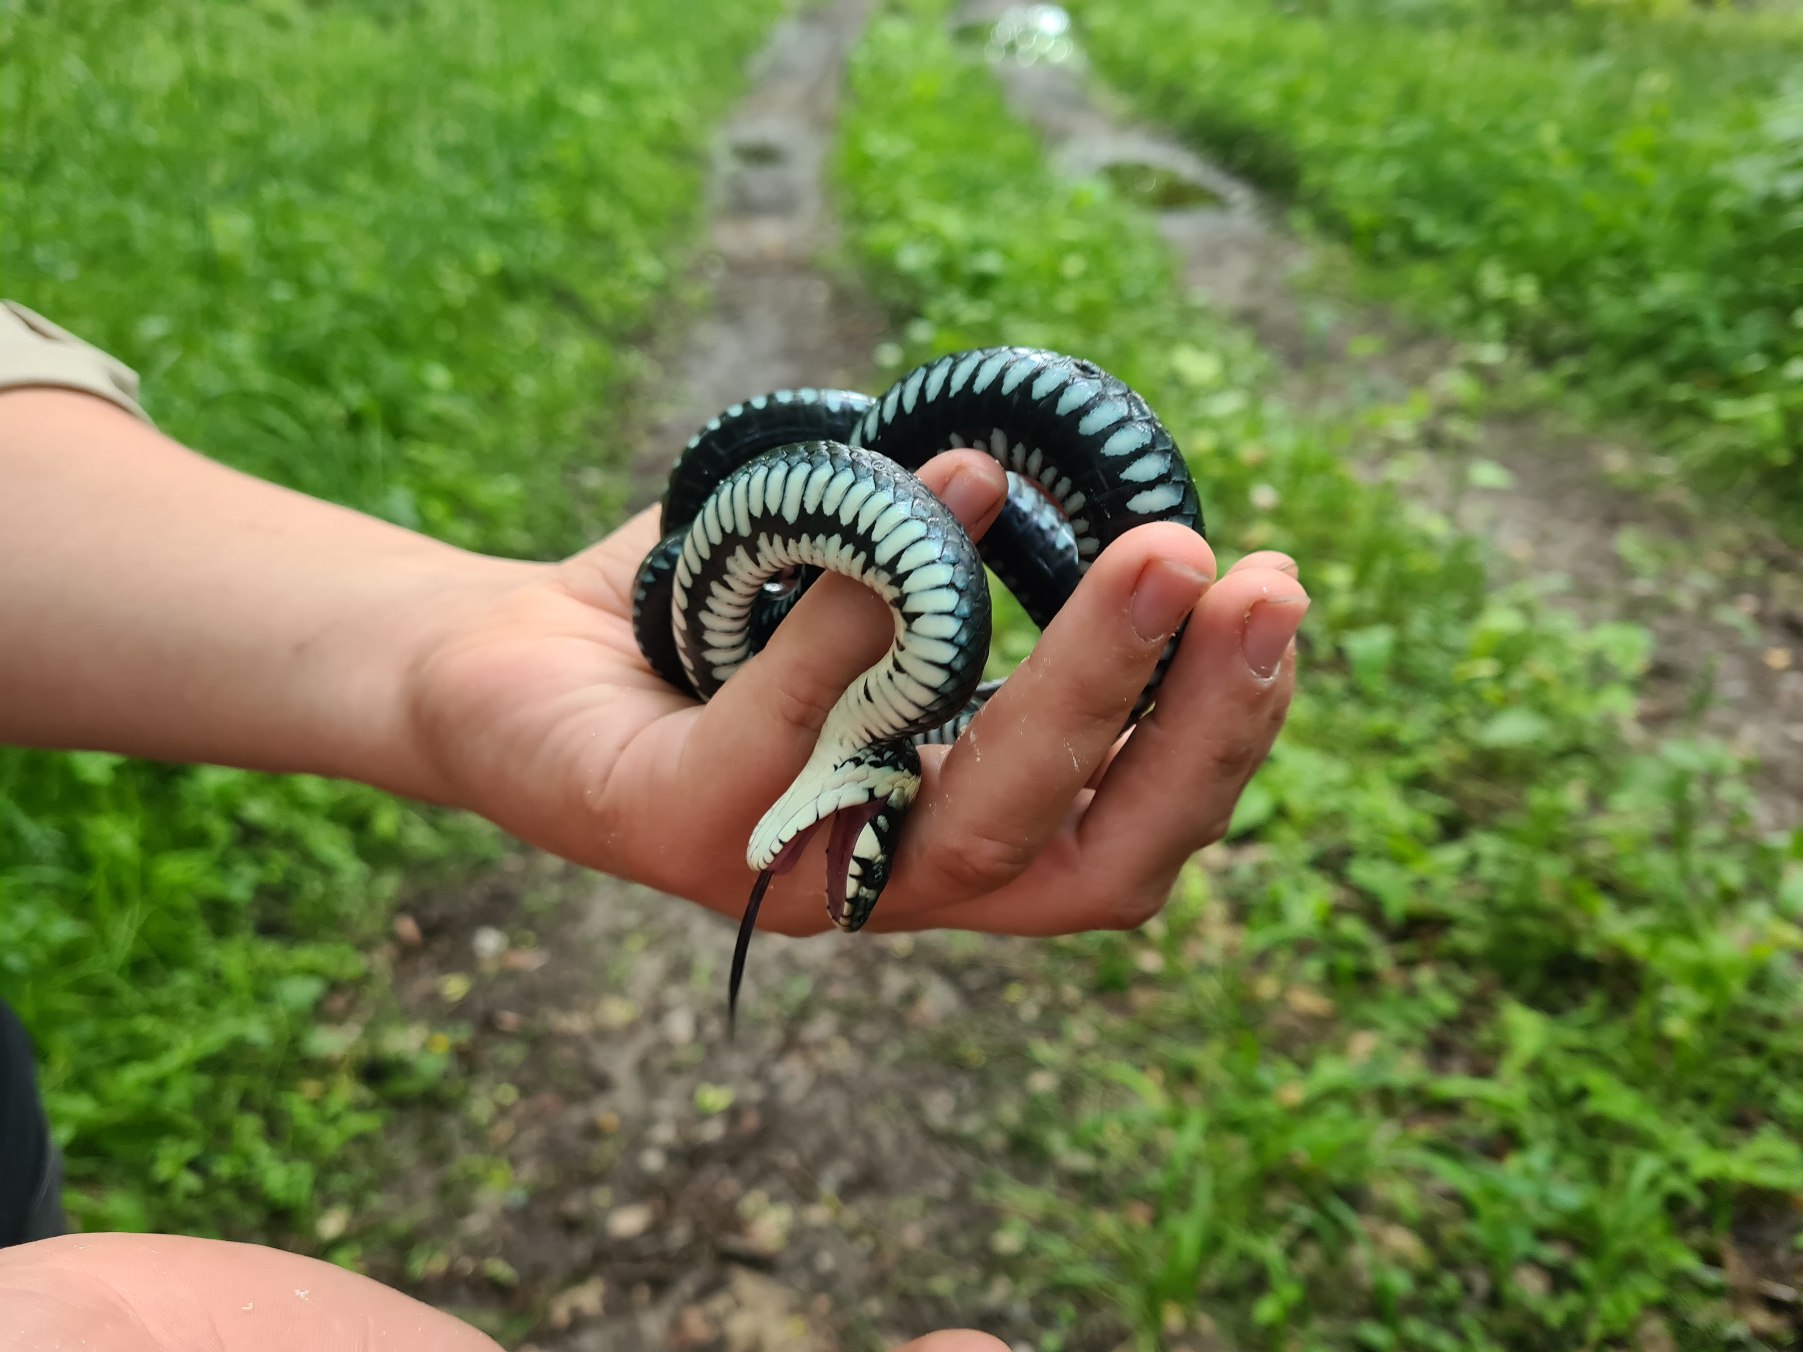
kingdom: Animalia
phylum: Chordata
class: Squamata
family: Colubridae
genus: Natrix
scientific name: Natrix natrix
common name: Snog
